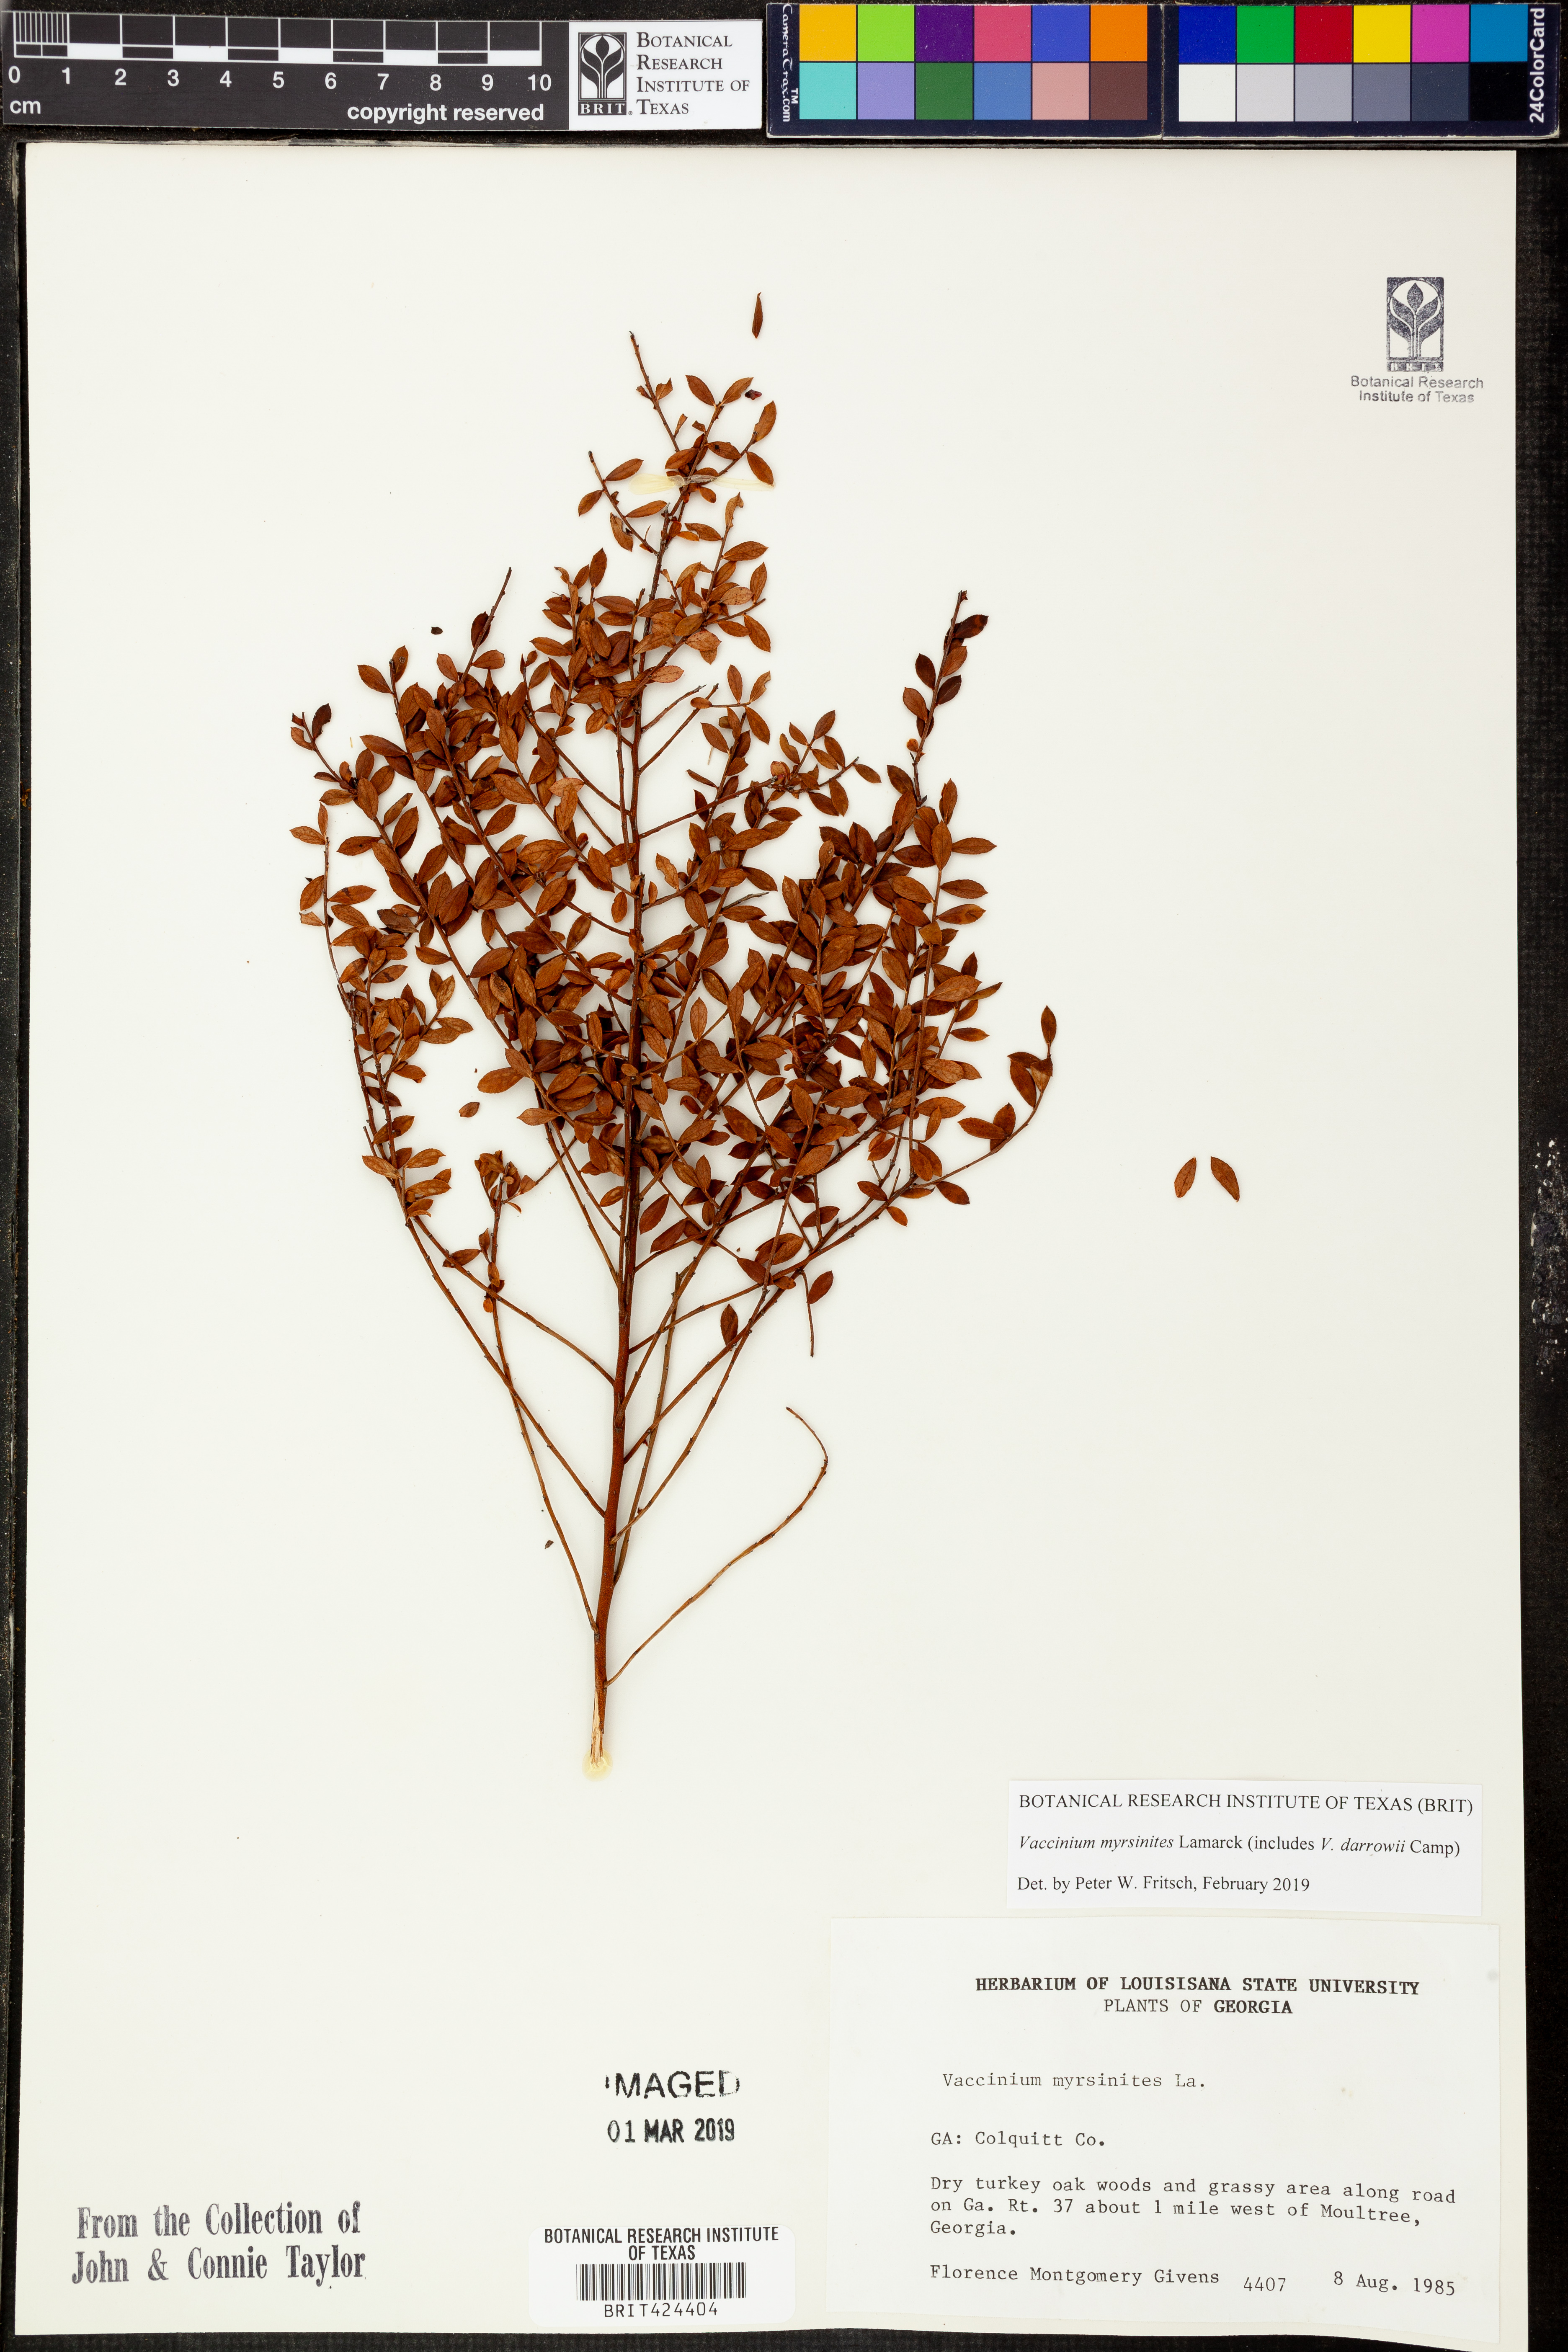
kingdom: Plantae
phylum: Tracheophyta
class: Magnoliopsida
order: Ericales
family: Ericaceae
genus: Vaccinium
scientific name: Vaccinium myrsinites
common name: Evergreen blueberry
